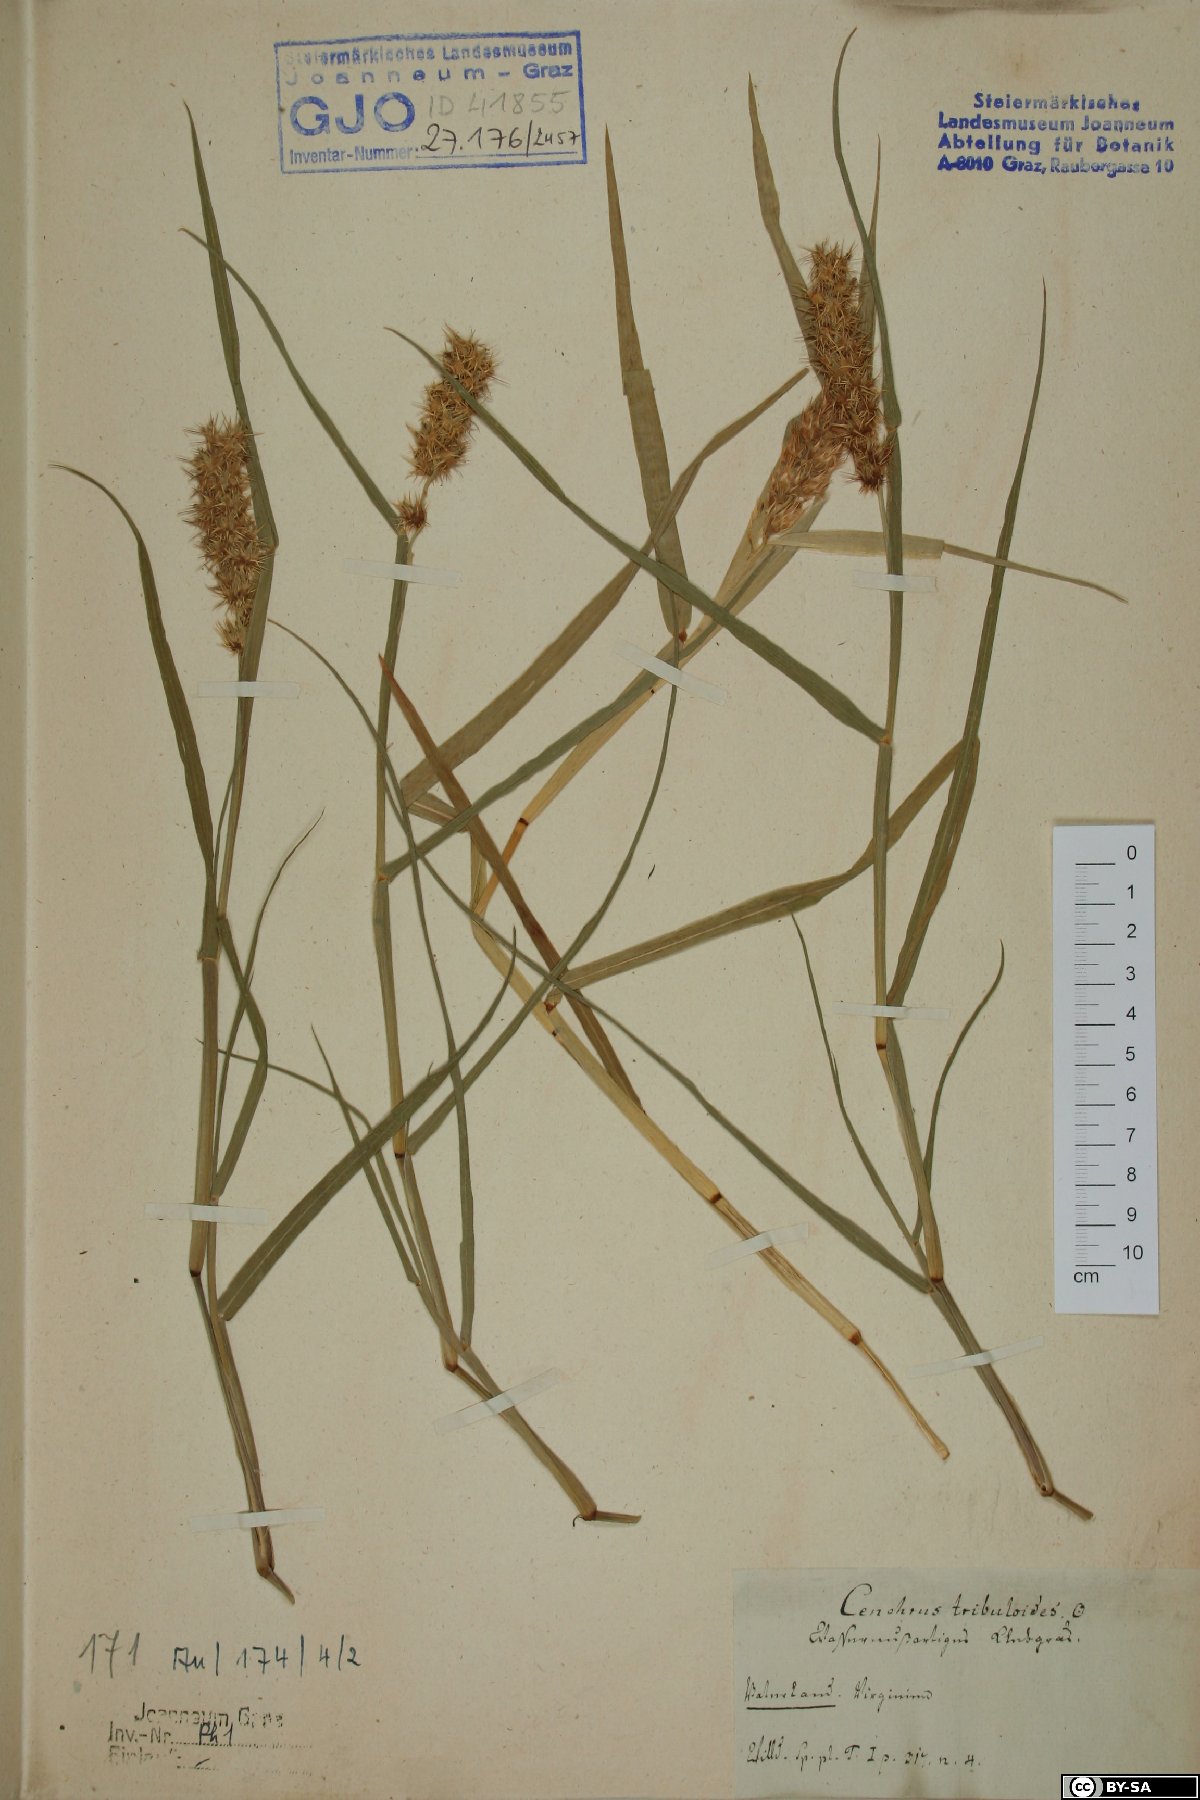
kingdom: Plantae
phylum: Tracheophyta
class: Liliopsida
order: Poales
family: Poaceae
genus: Cenchrus
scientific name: Cenchrus tribuloides
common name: Dune sandbur
